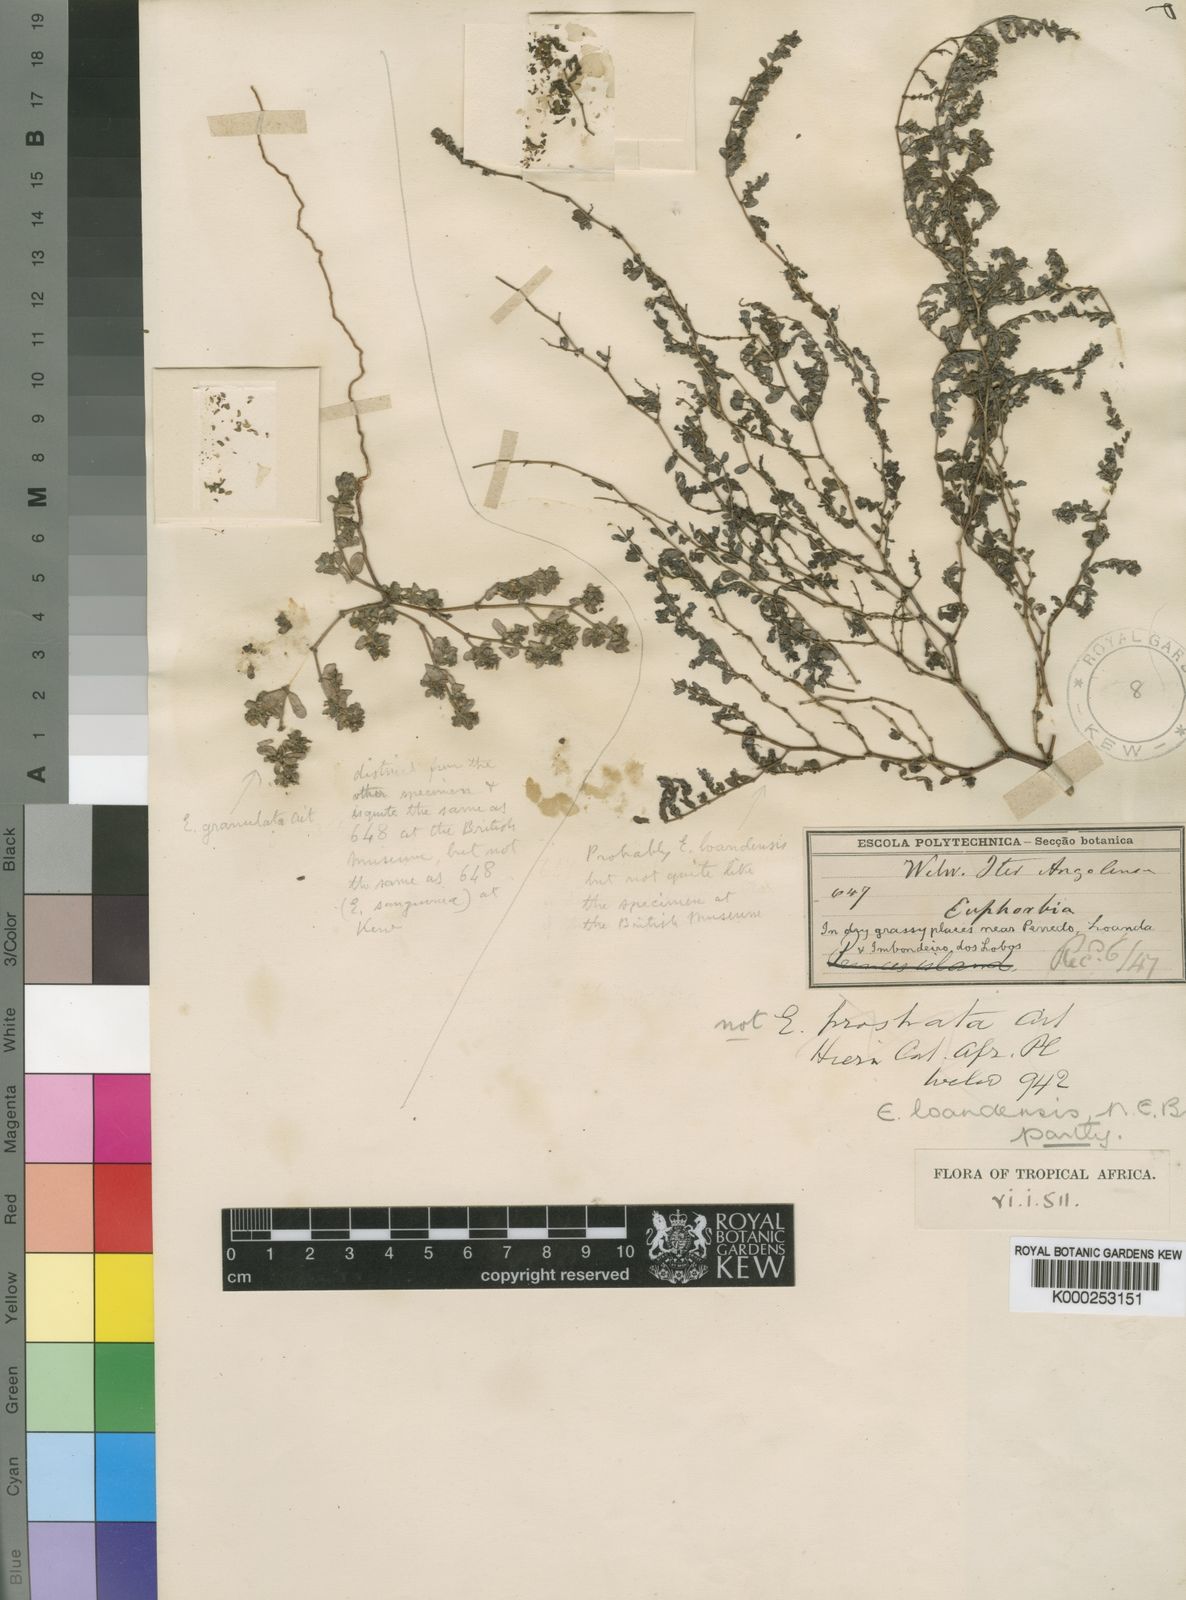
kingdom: Plantae
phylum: Tracheophyta
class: Magnoliopsida
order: Malpighiales
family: Euphorbiaceae
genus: Euphorbia
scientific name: Euphorbia loandensis
